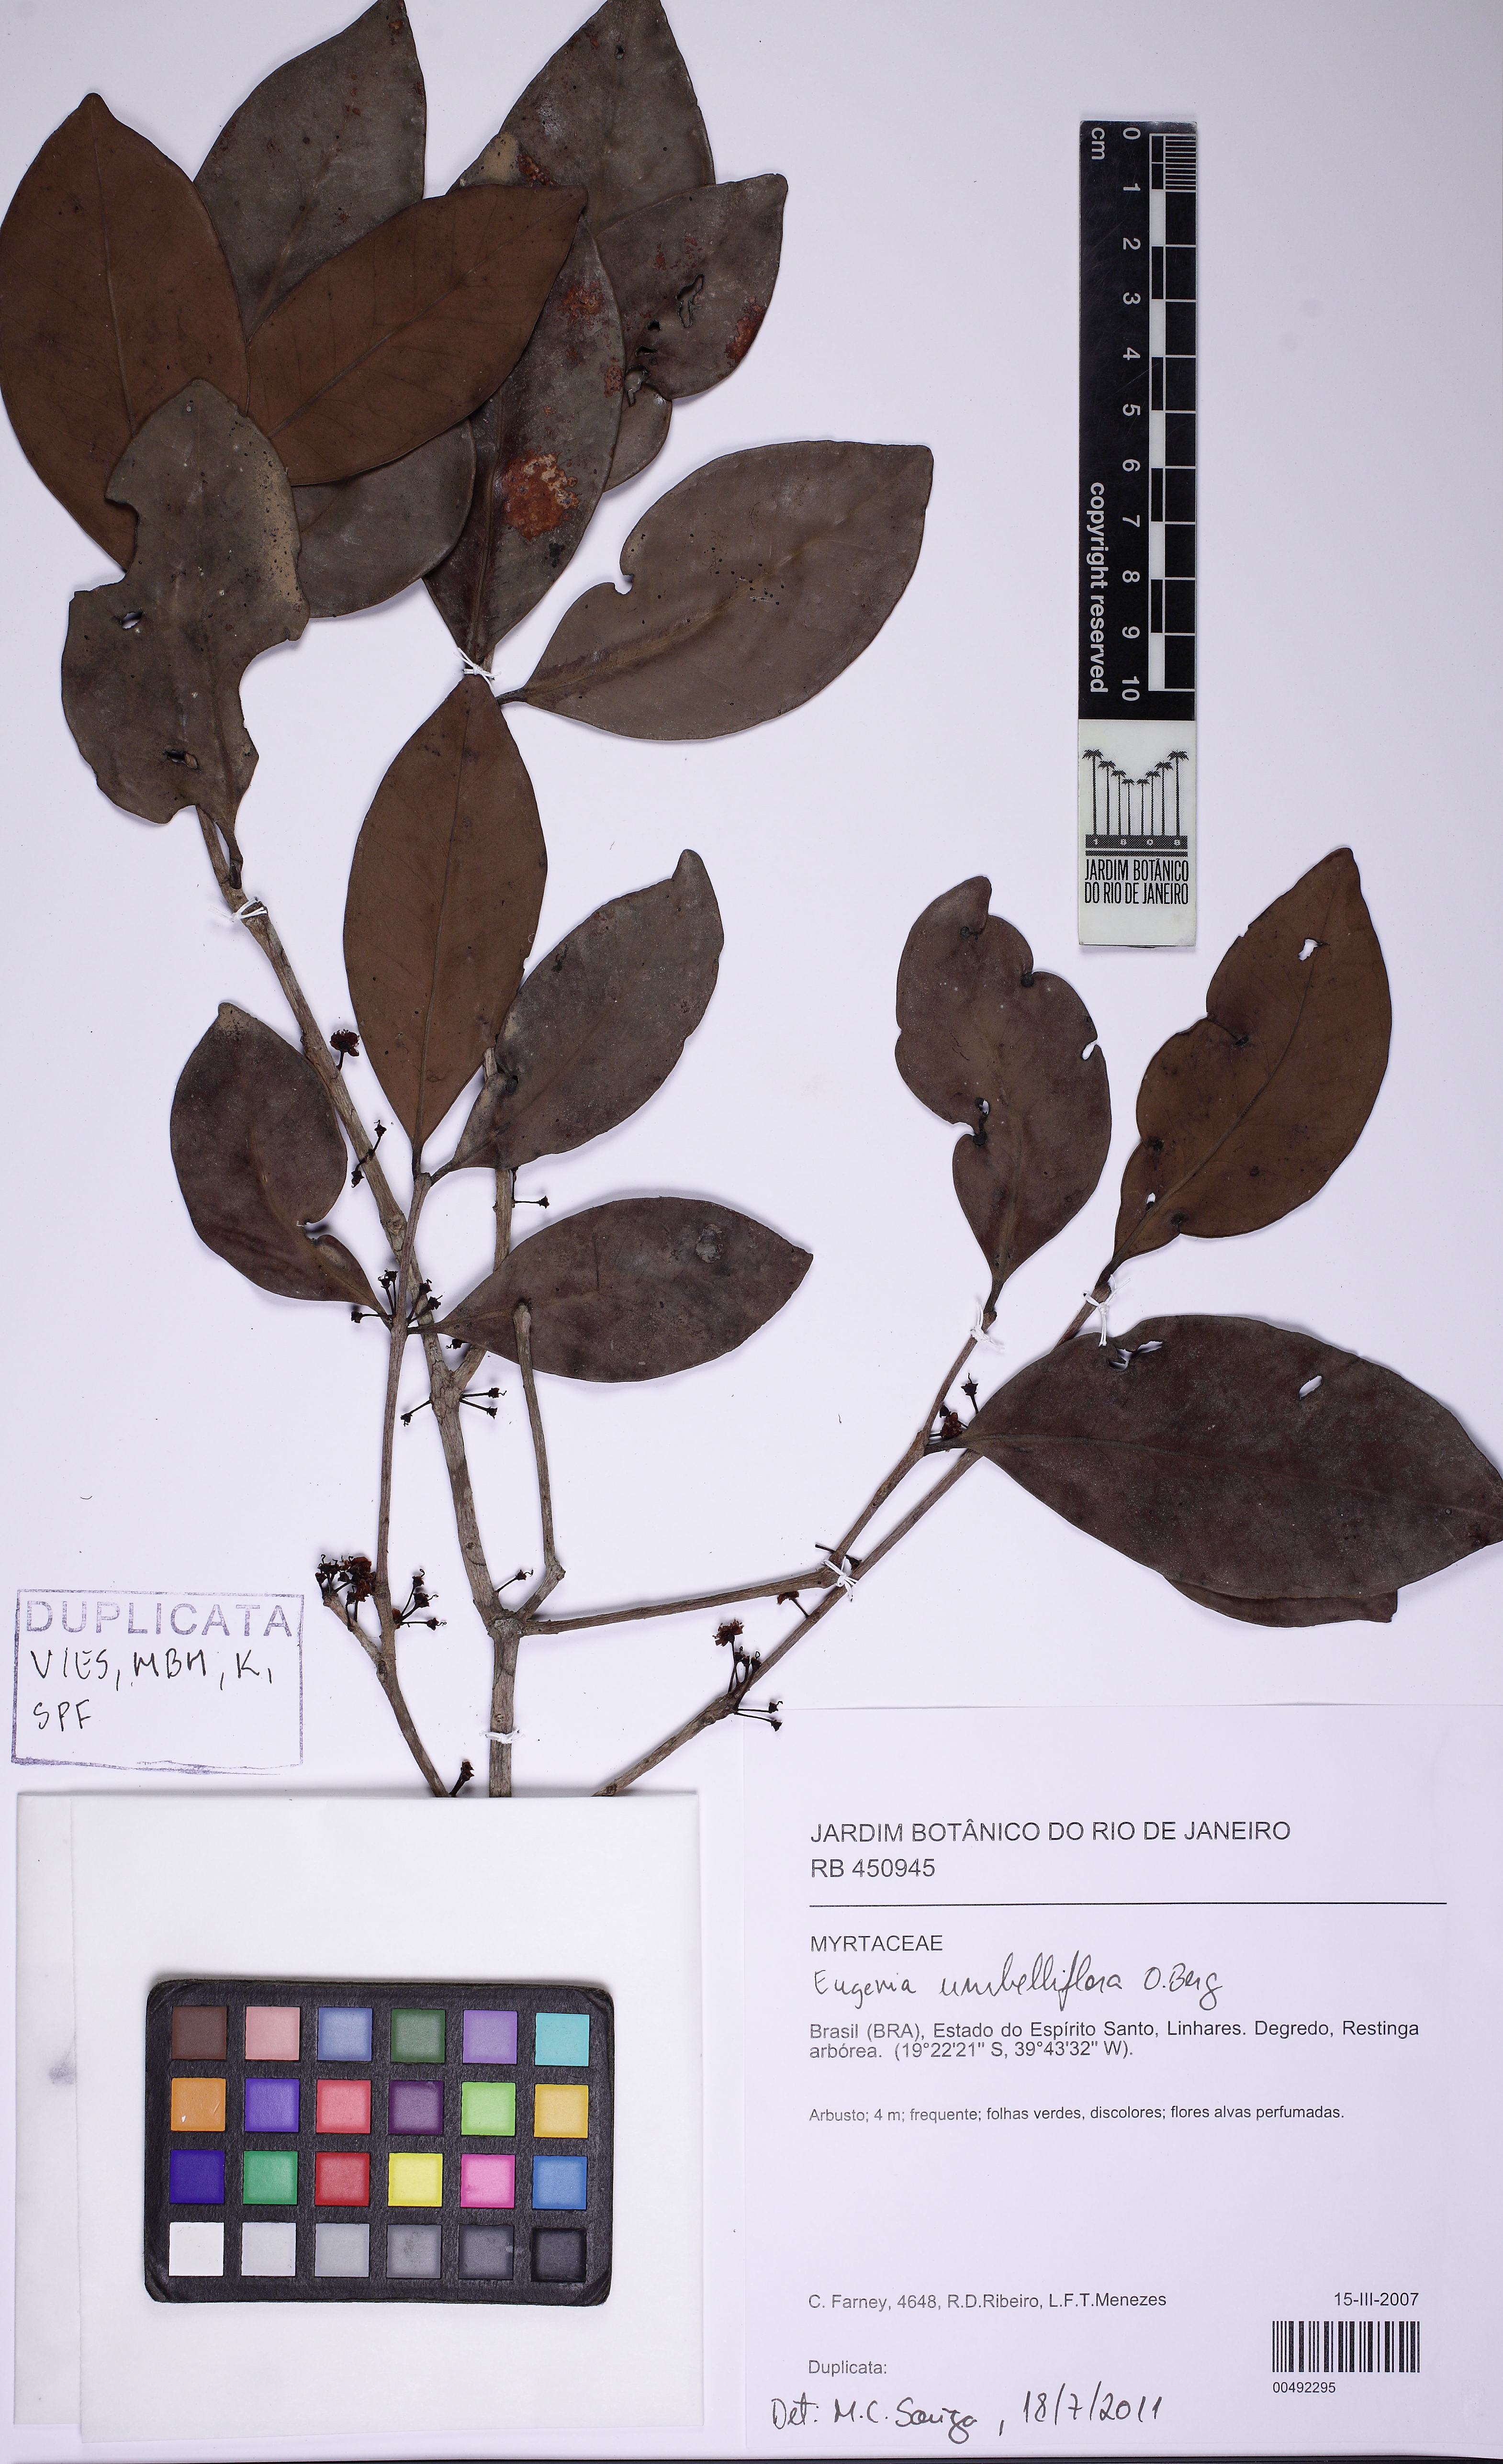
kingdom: Plantae
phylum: Tracheophyta
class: Magnoliopsida
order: Myrtales
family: Myrtaceae
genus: Eugenia
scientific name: Eugenia umbelliflora
